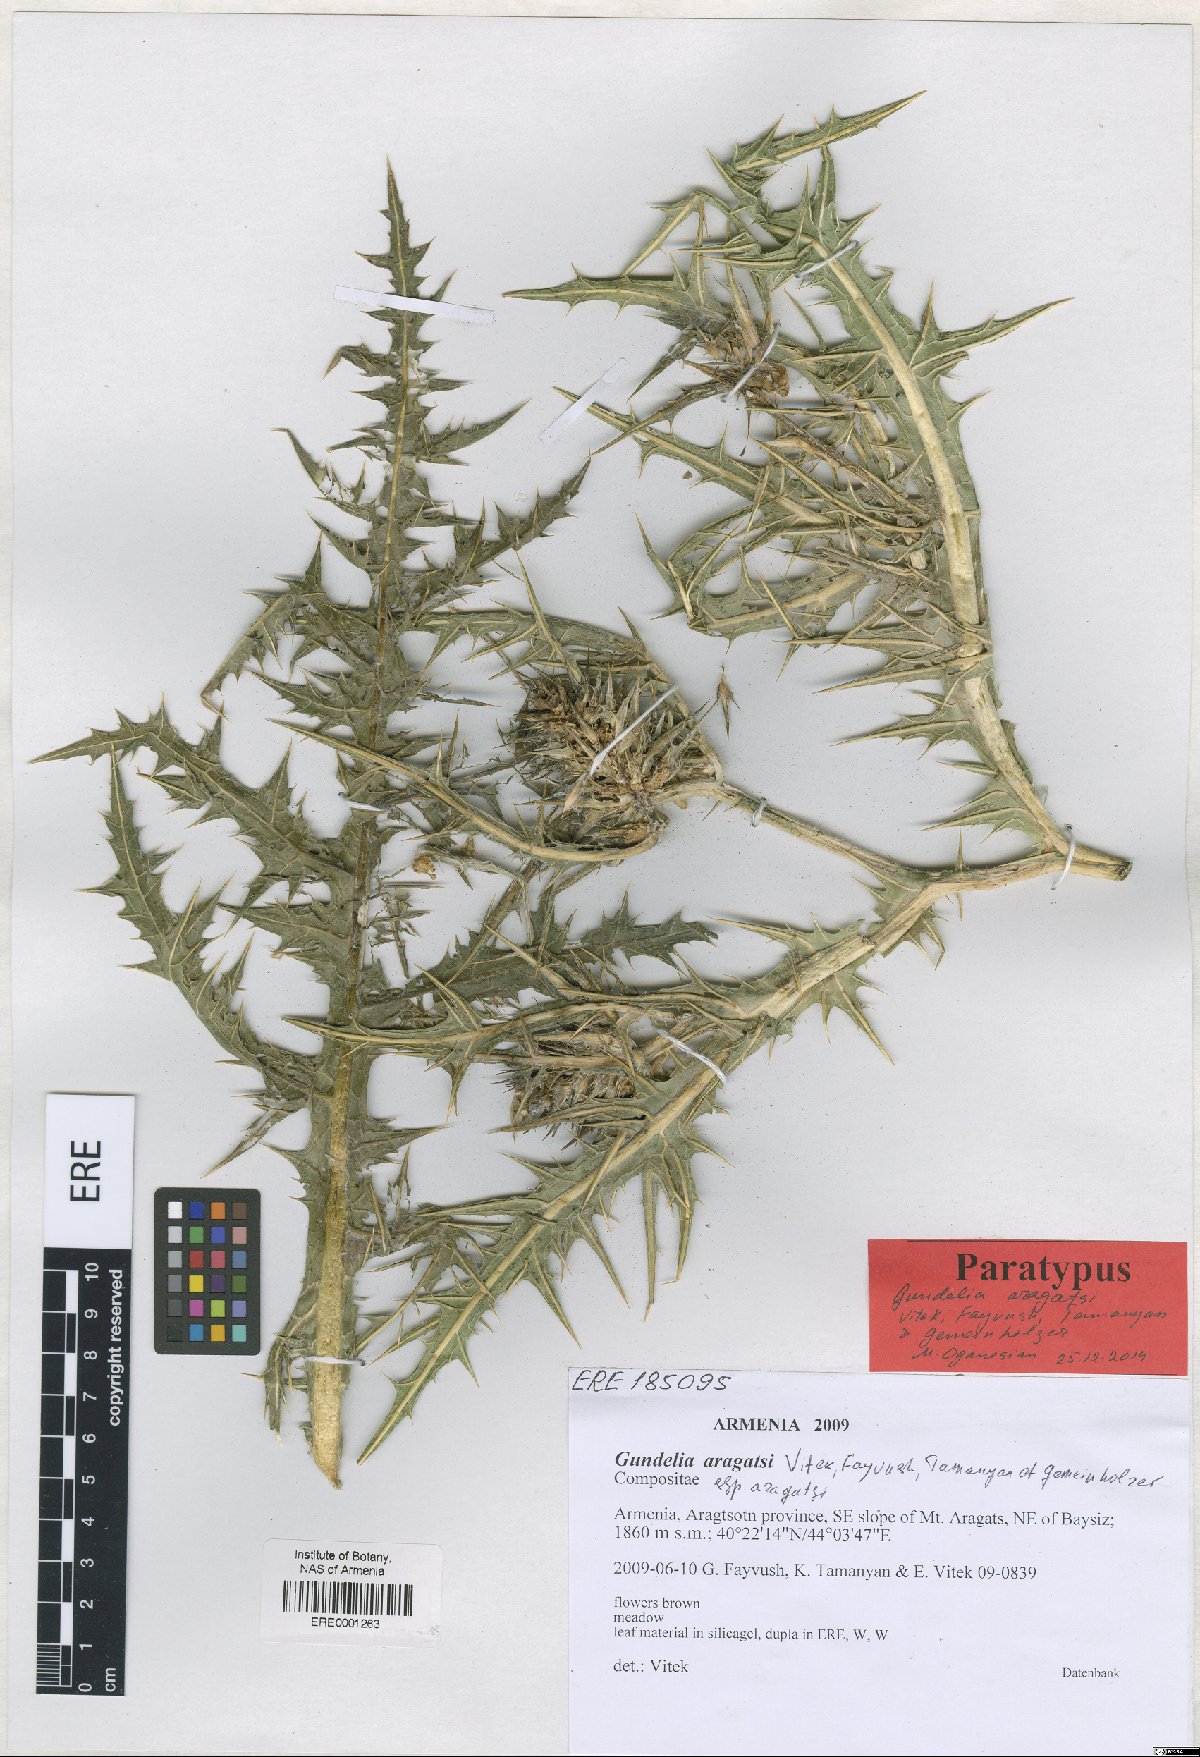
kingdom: Plantae
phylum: Tracheophyta
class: Magnoliopsida
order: Asterales
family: Asteraceae
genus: Gundelia
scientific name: Gundelia aragatsi
